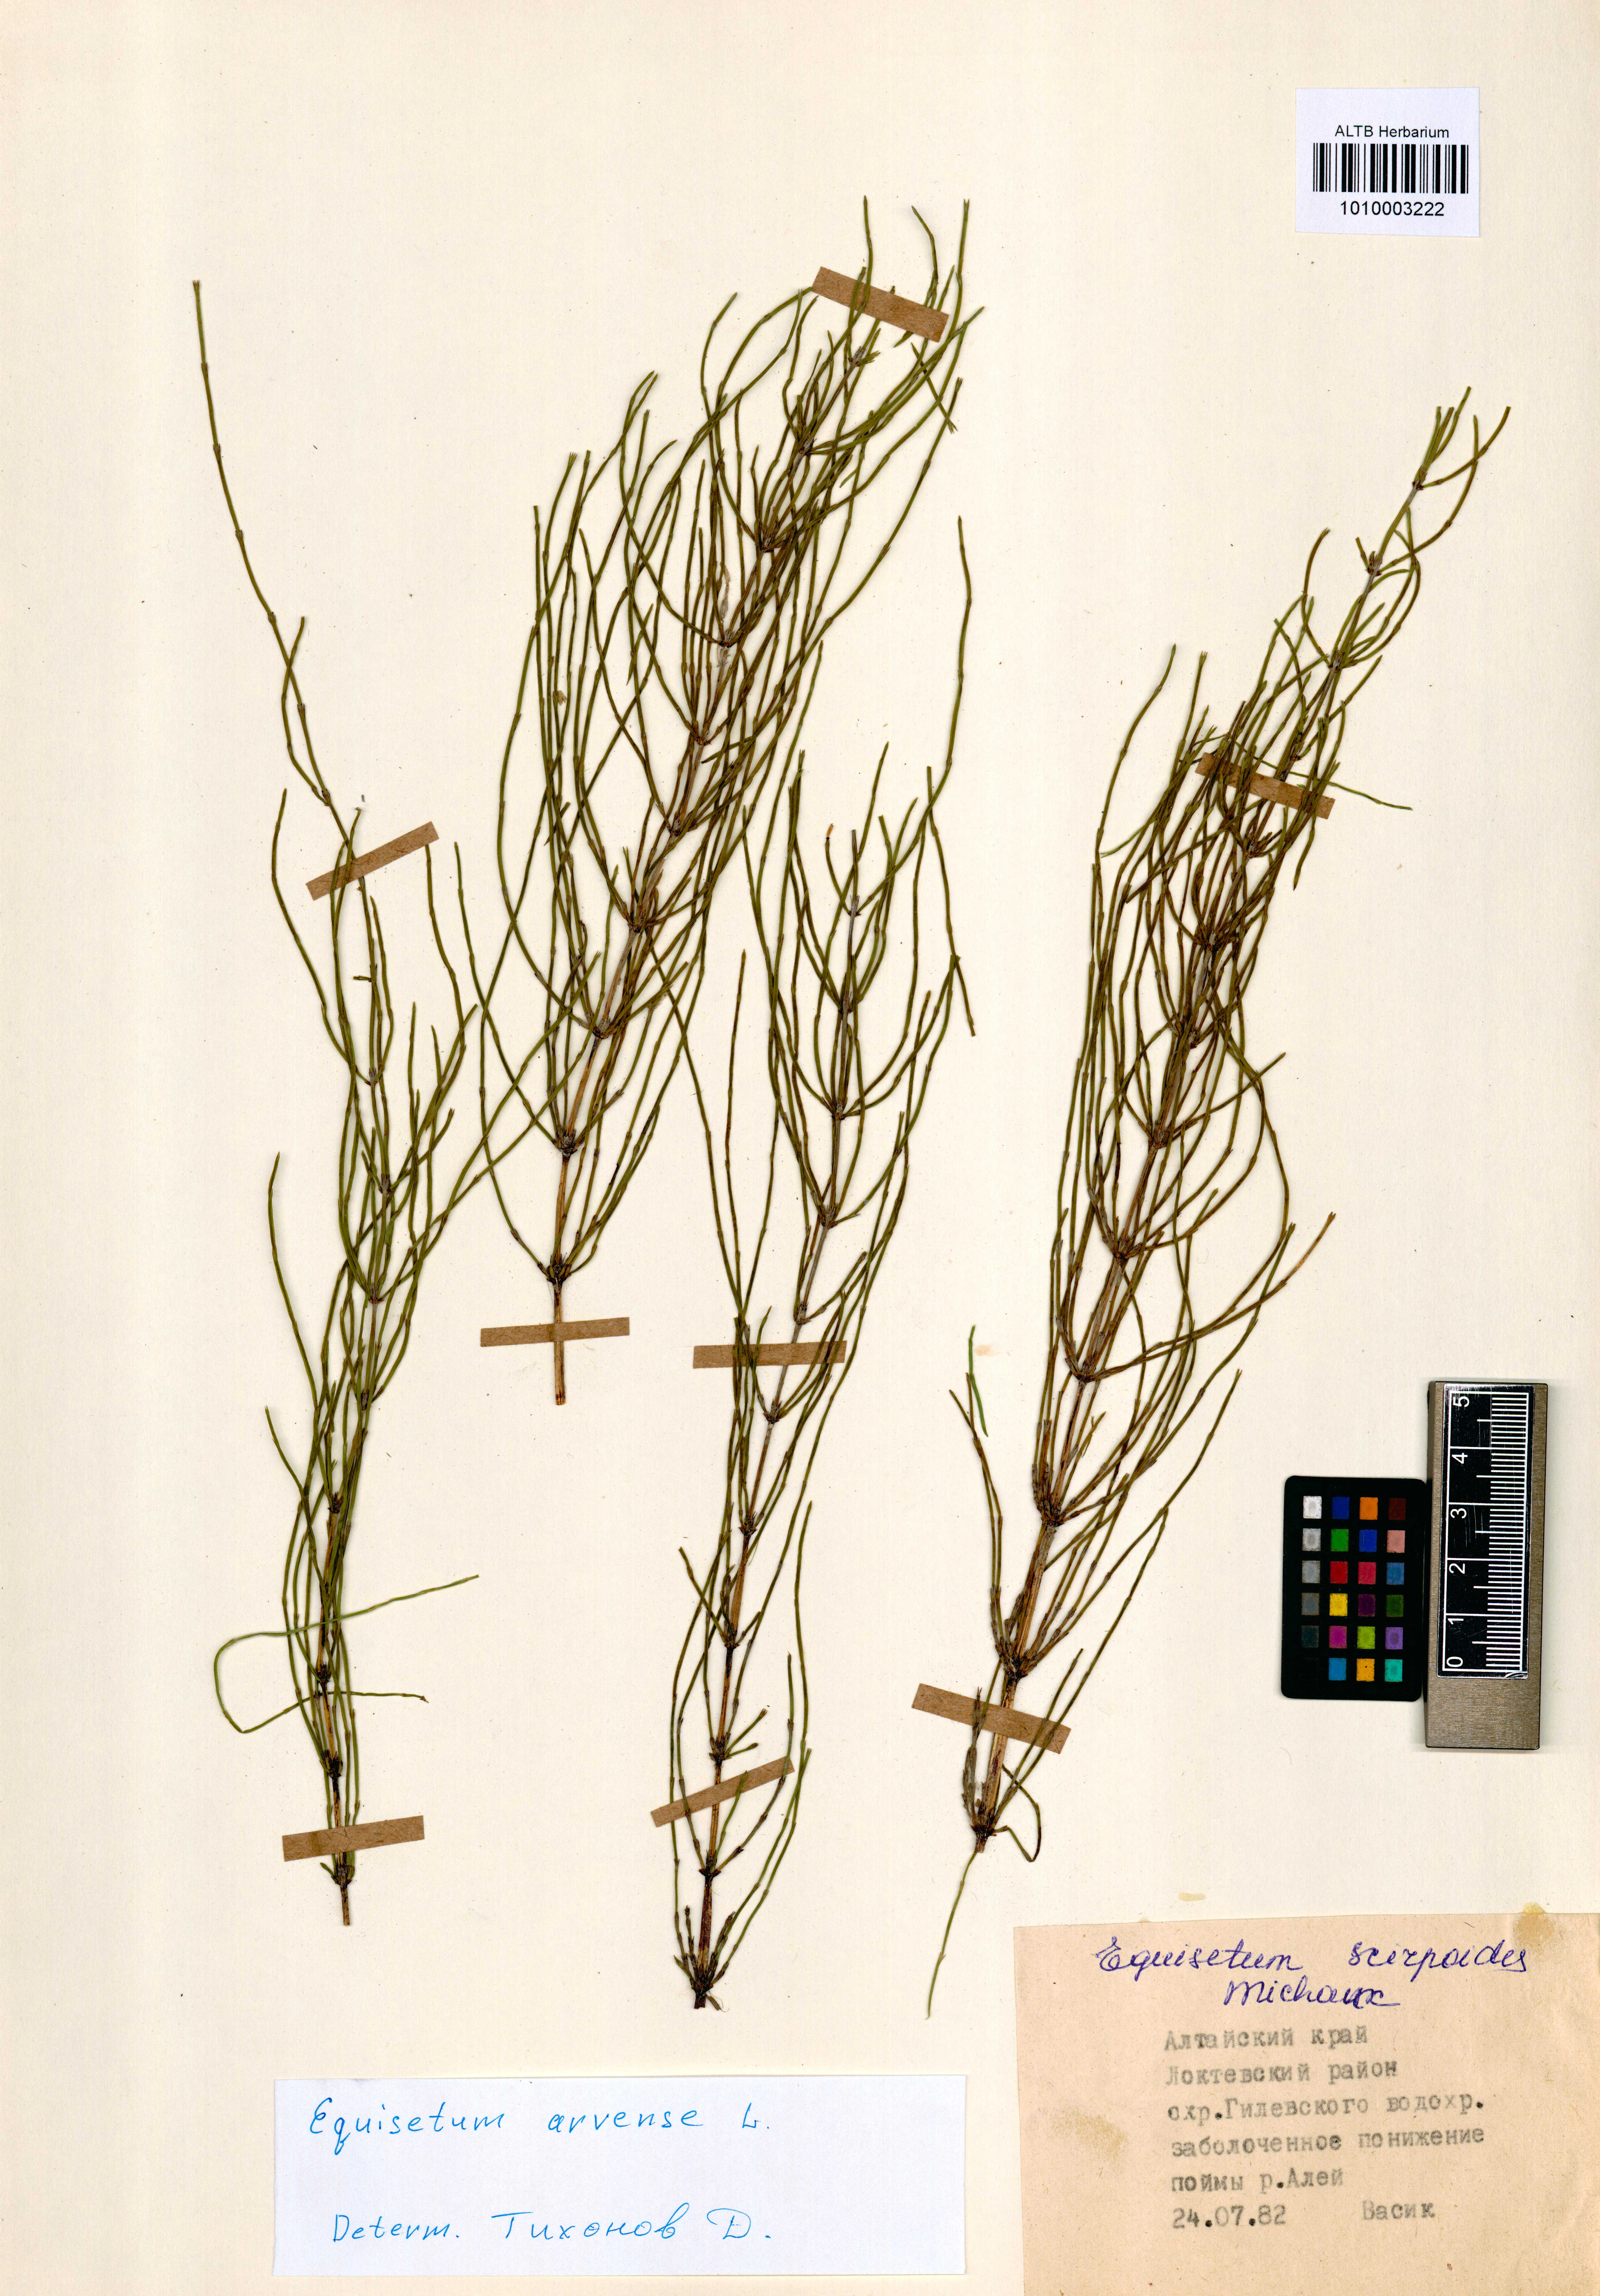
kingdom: Plantae
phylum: Tracheophyta
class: Polypodiopsida
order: Equisetales
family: Equisetaceae
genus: Equisetum
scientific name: Equisetum arvense
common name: Field horsetail
